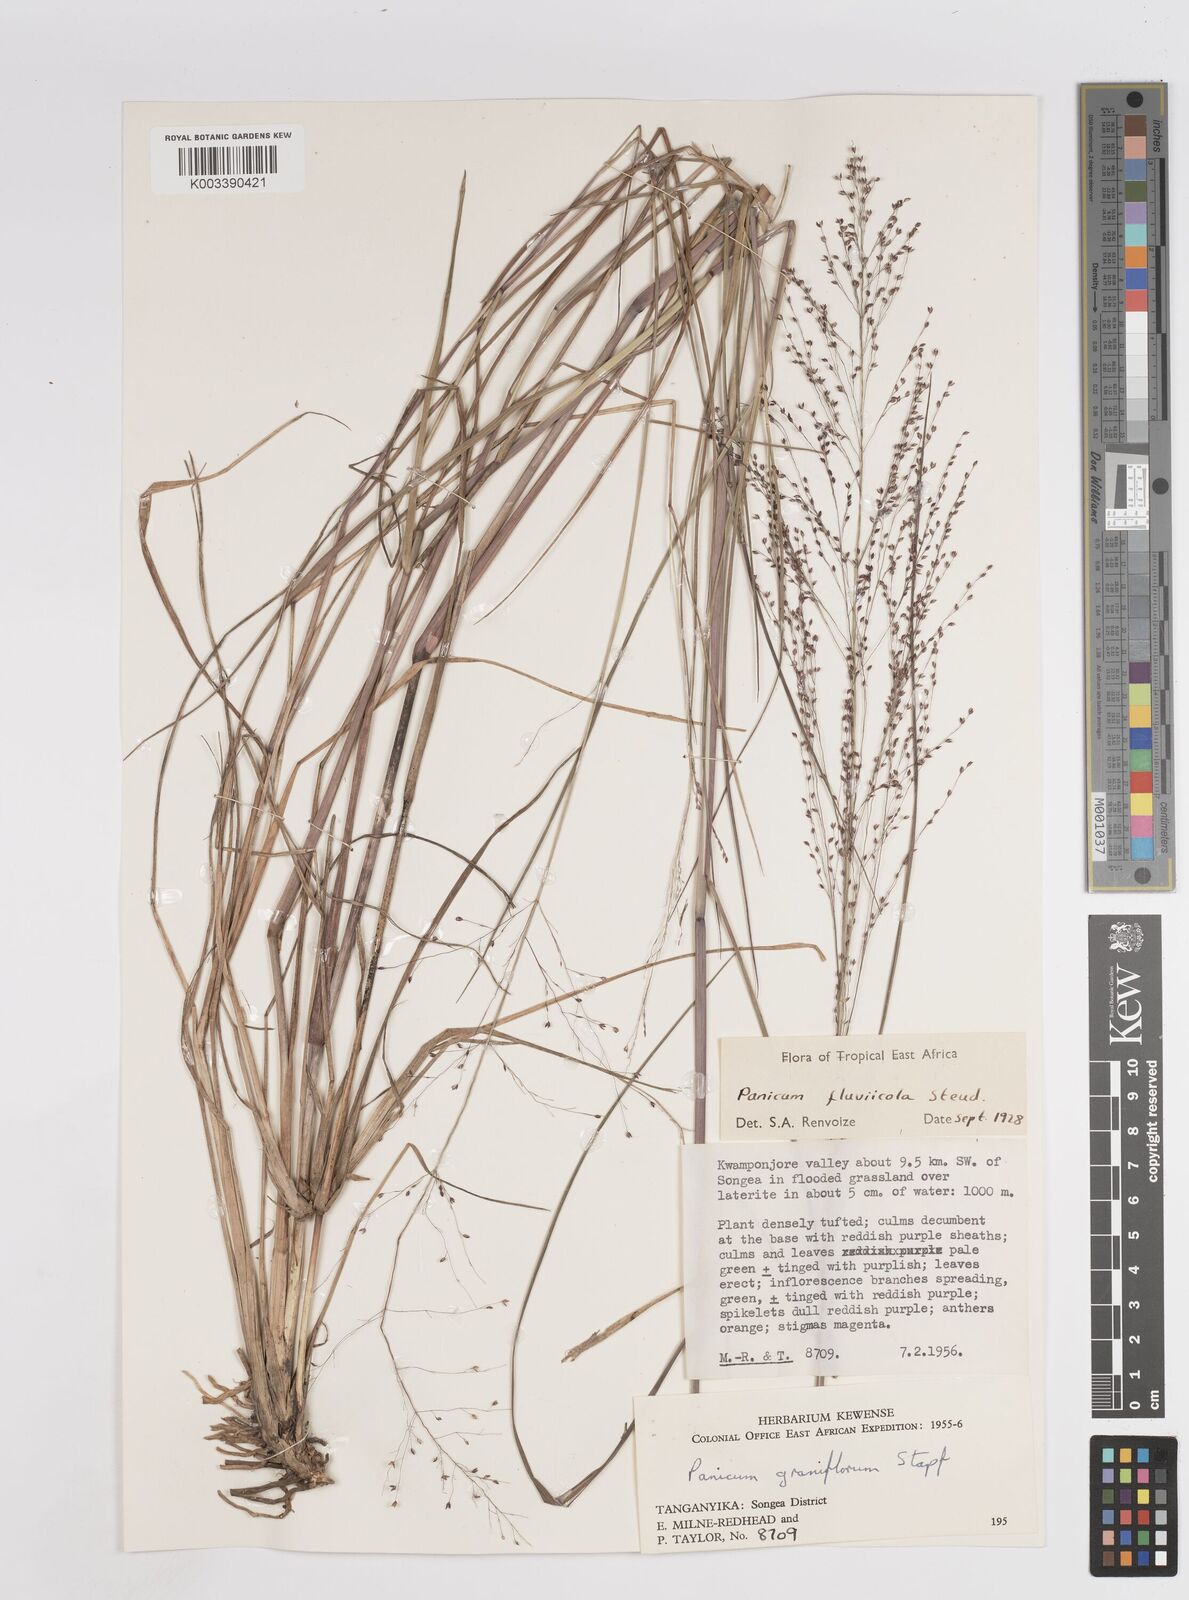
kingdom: Plantae
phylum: Tracheophyta
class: Liliopsida
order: Poales
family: Poaceae
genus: Panicum
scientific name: Panicum fluviicola
